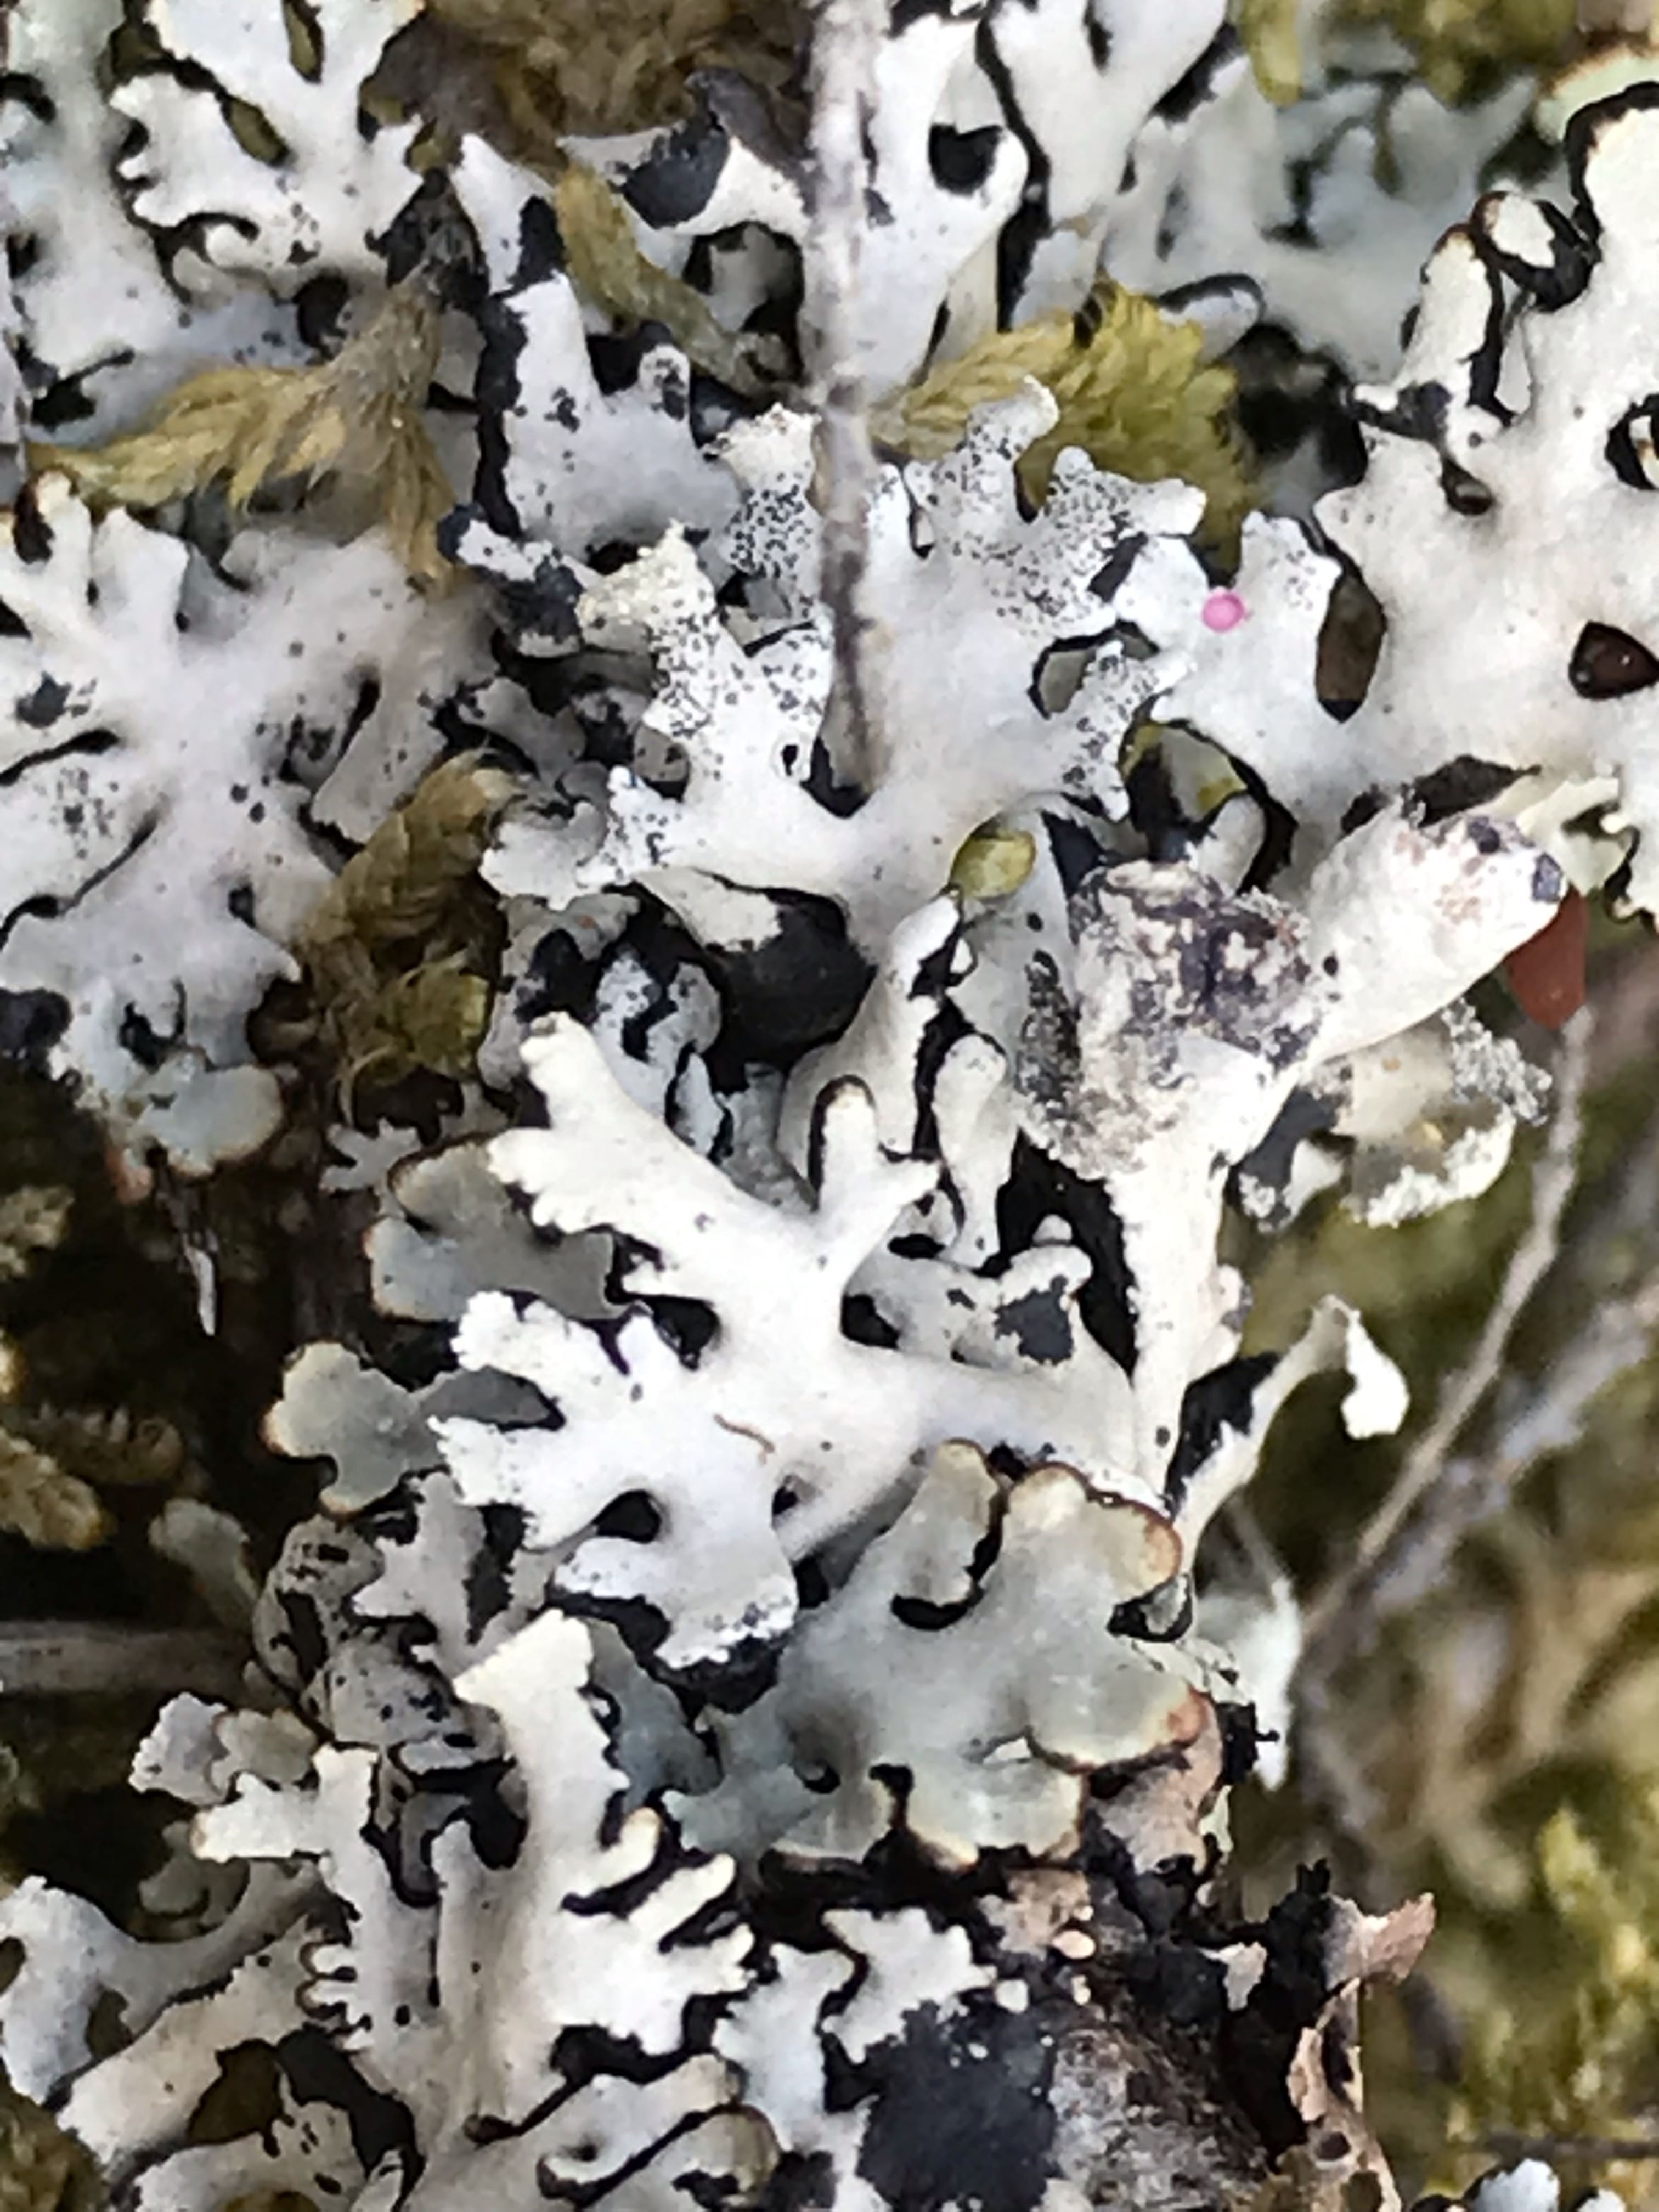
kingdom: Fungi
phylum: Ascomycota
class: Lecanoromycetes
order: Lecanorales
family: Parmeliaceae
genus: Hypogymnia
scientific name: Hypogymnia physodes
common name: almindelig kvistlav
